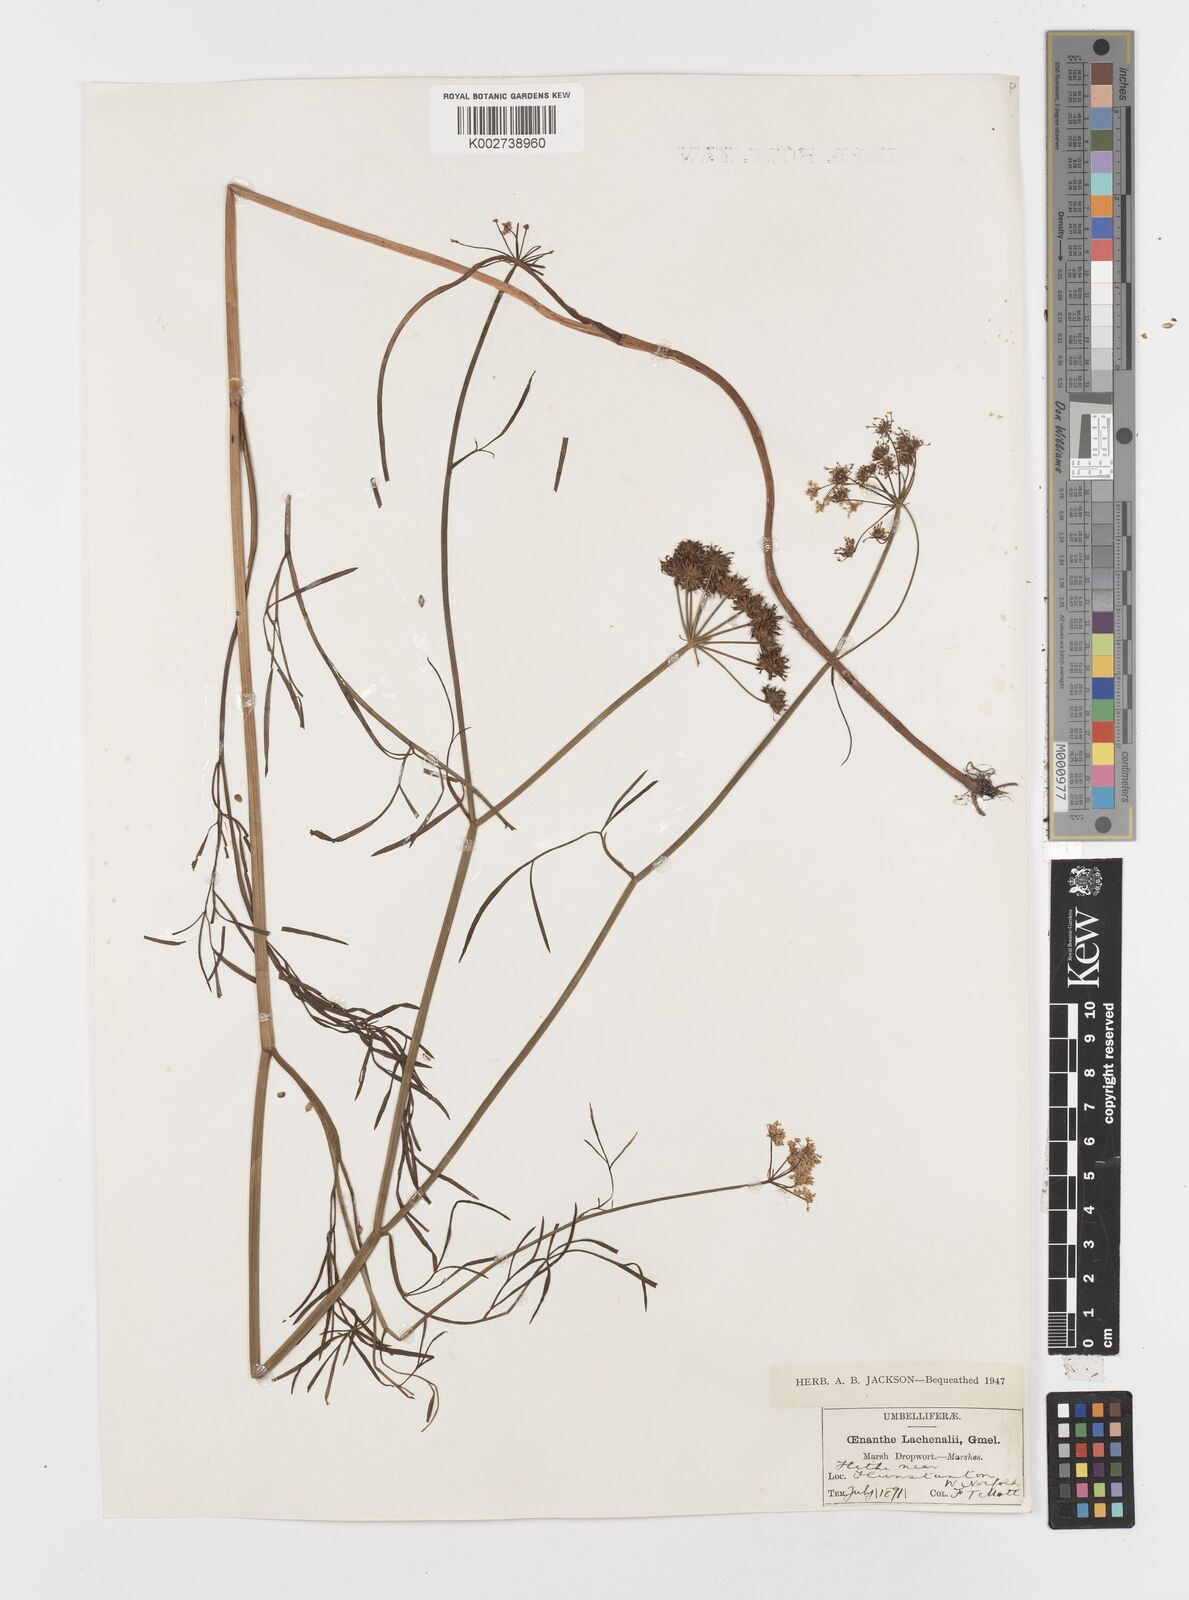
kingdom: Plantae
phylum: Tracheophyta
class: Magnoliopsida
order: Apiales
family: Apiaceae
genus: Oenanthe
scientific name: Oenanthe lachenalii
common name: Parsley water-dropwort
